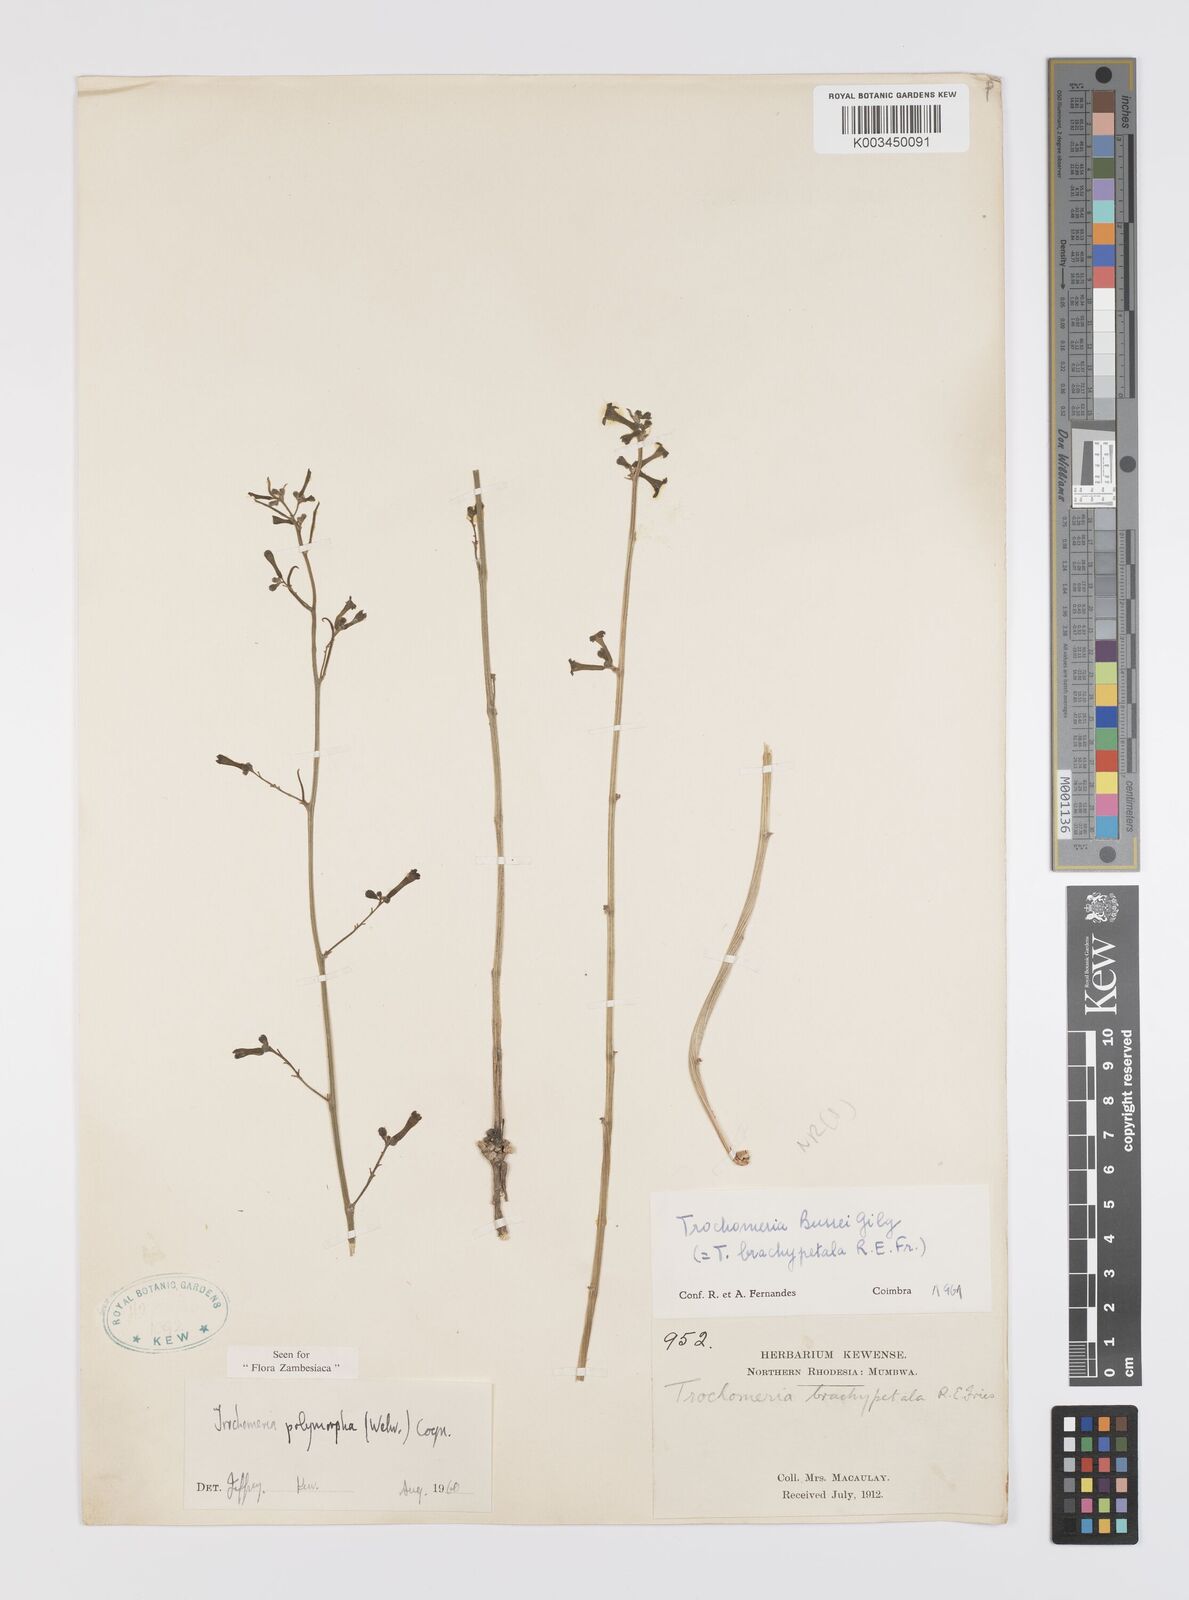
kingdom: Plantae
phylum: Tracheophyta
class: Magnoliopsida
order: Cucurbitales
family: Cucurbitaceae
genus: Trochomeria
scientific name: Trochomeria polymorpha
